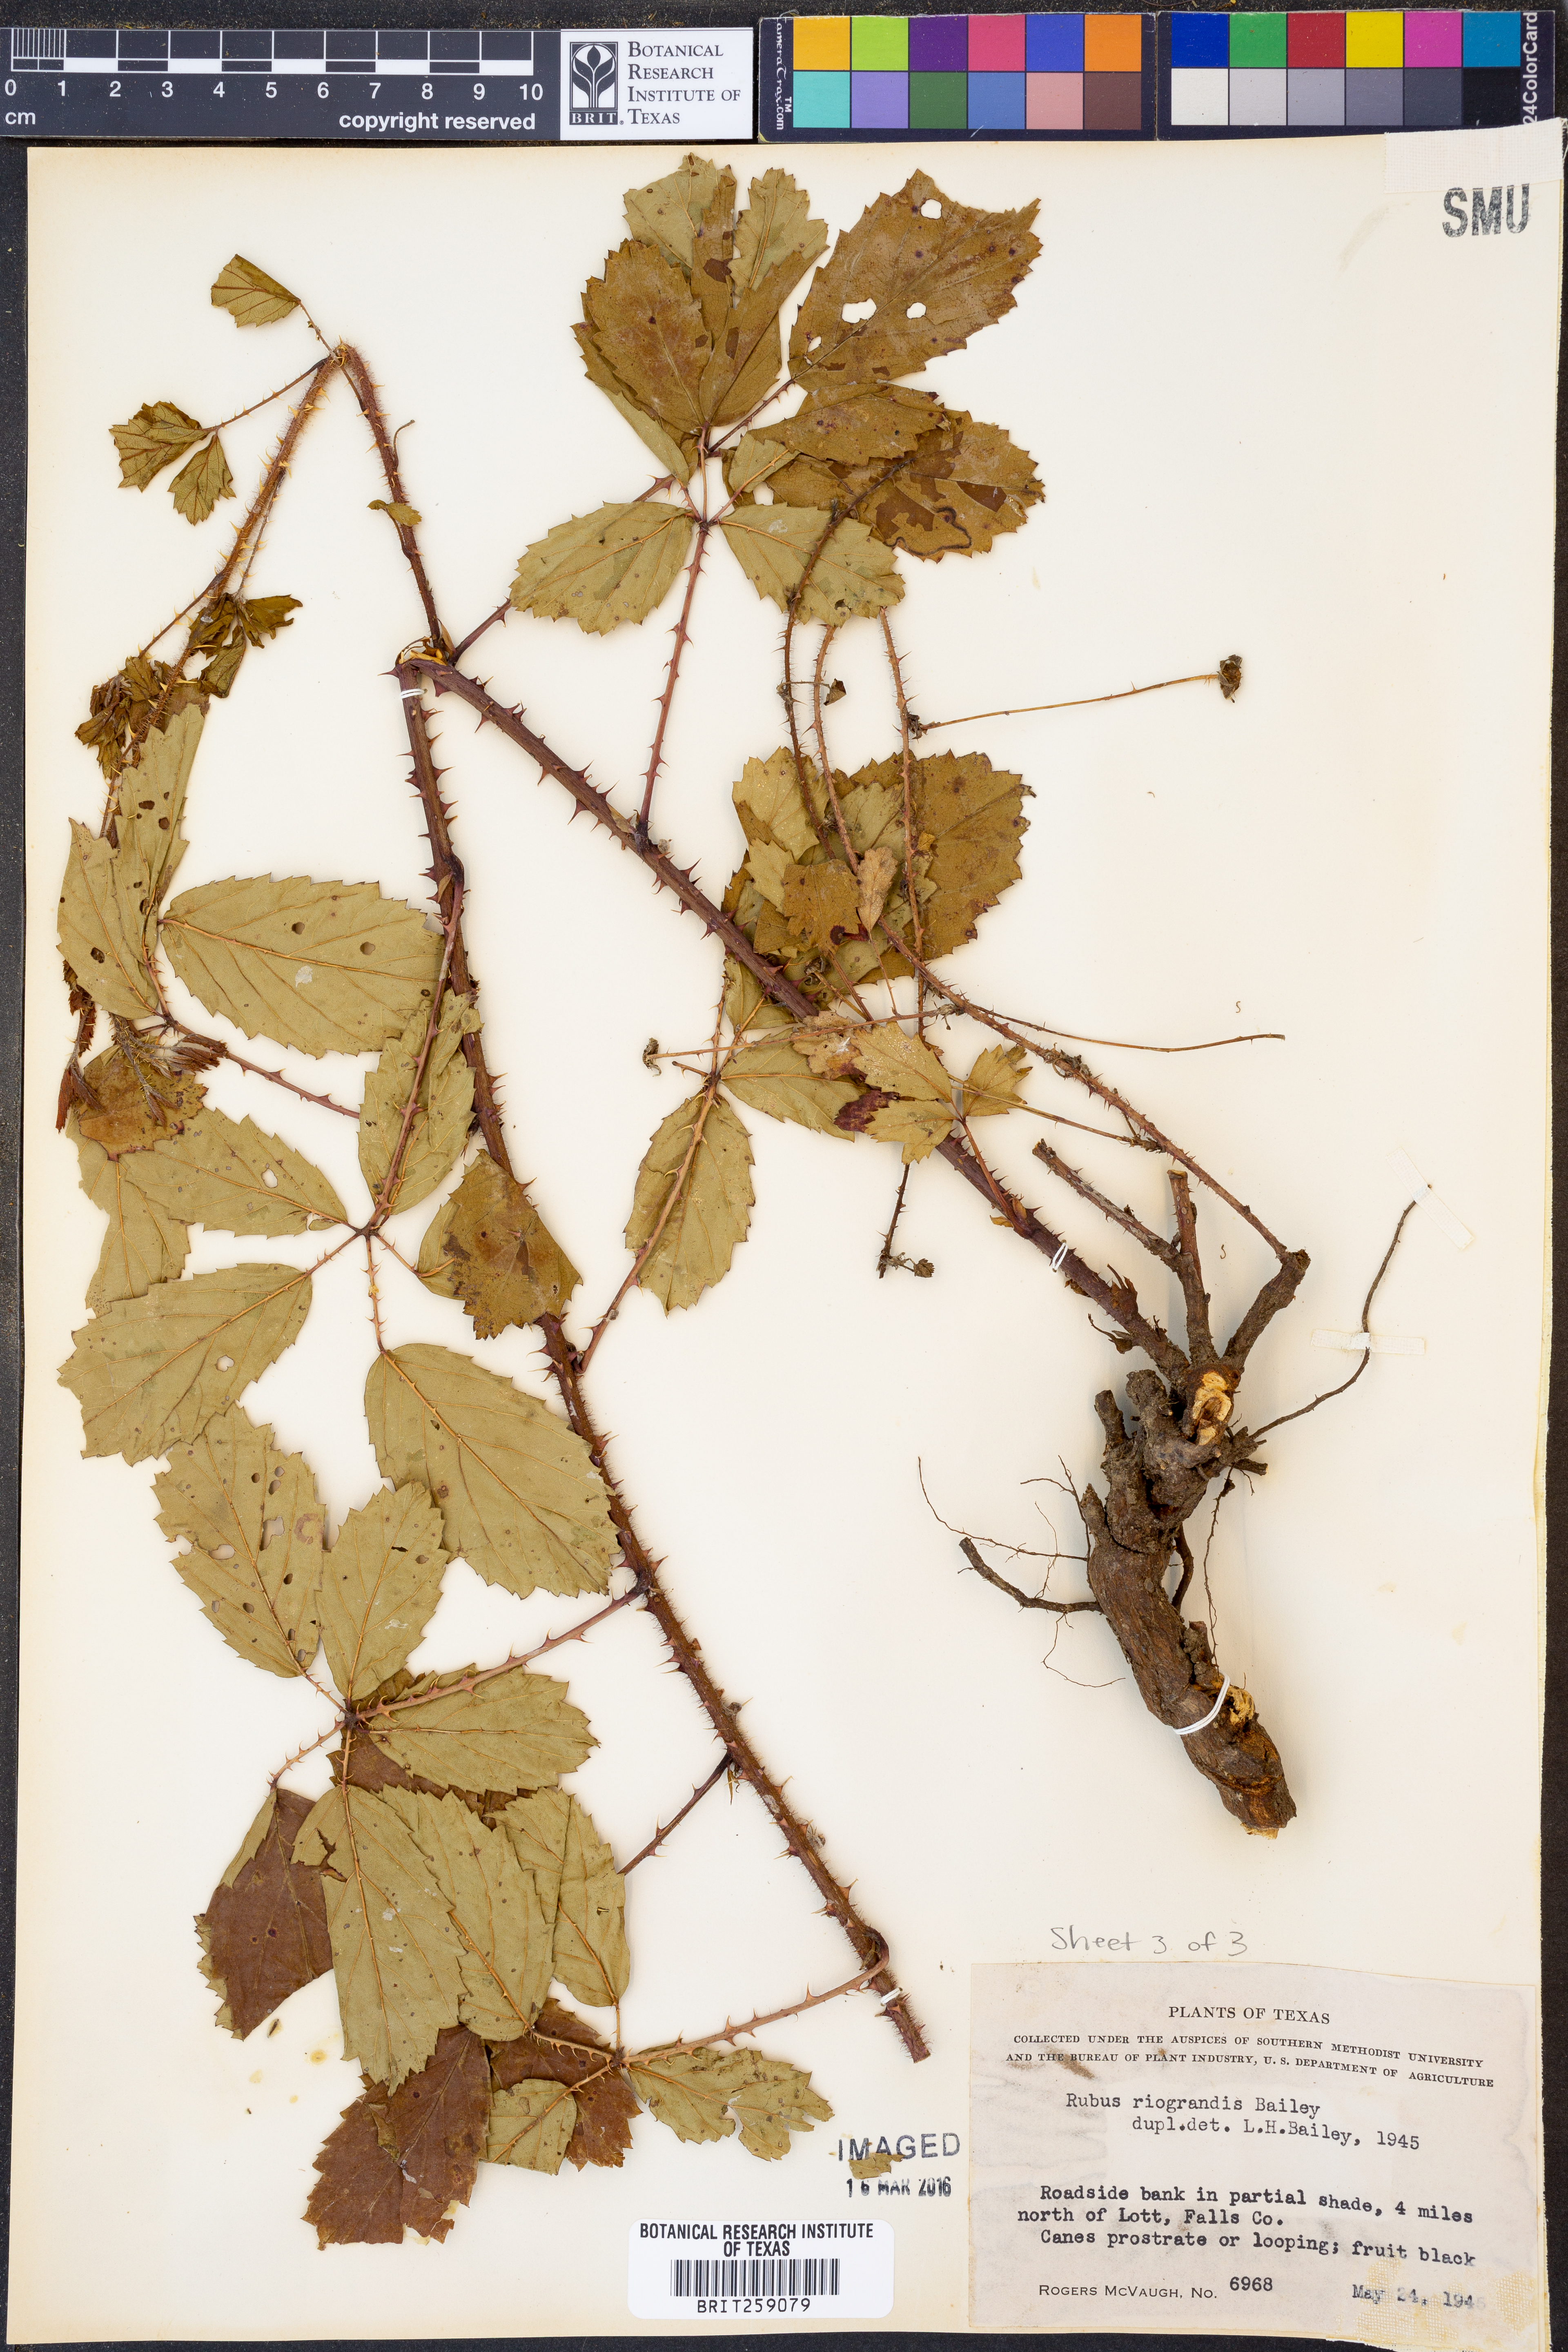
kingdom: Plantae
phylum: Tracheophyta
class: Magnoliopsida
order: Rosales
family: Rosaceae
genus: Rubus
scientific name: Rubus riograndis
